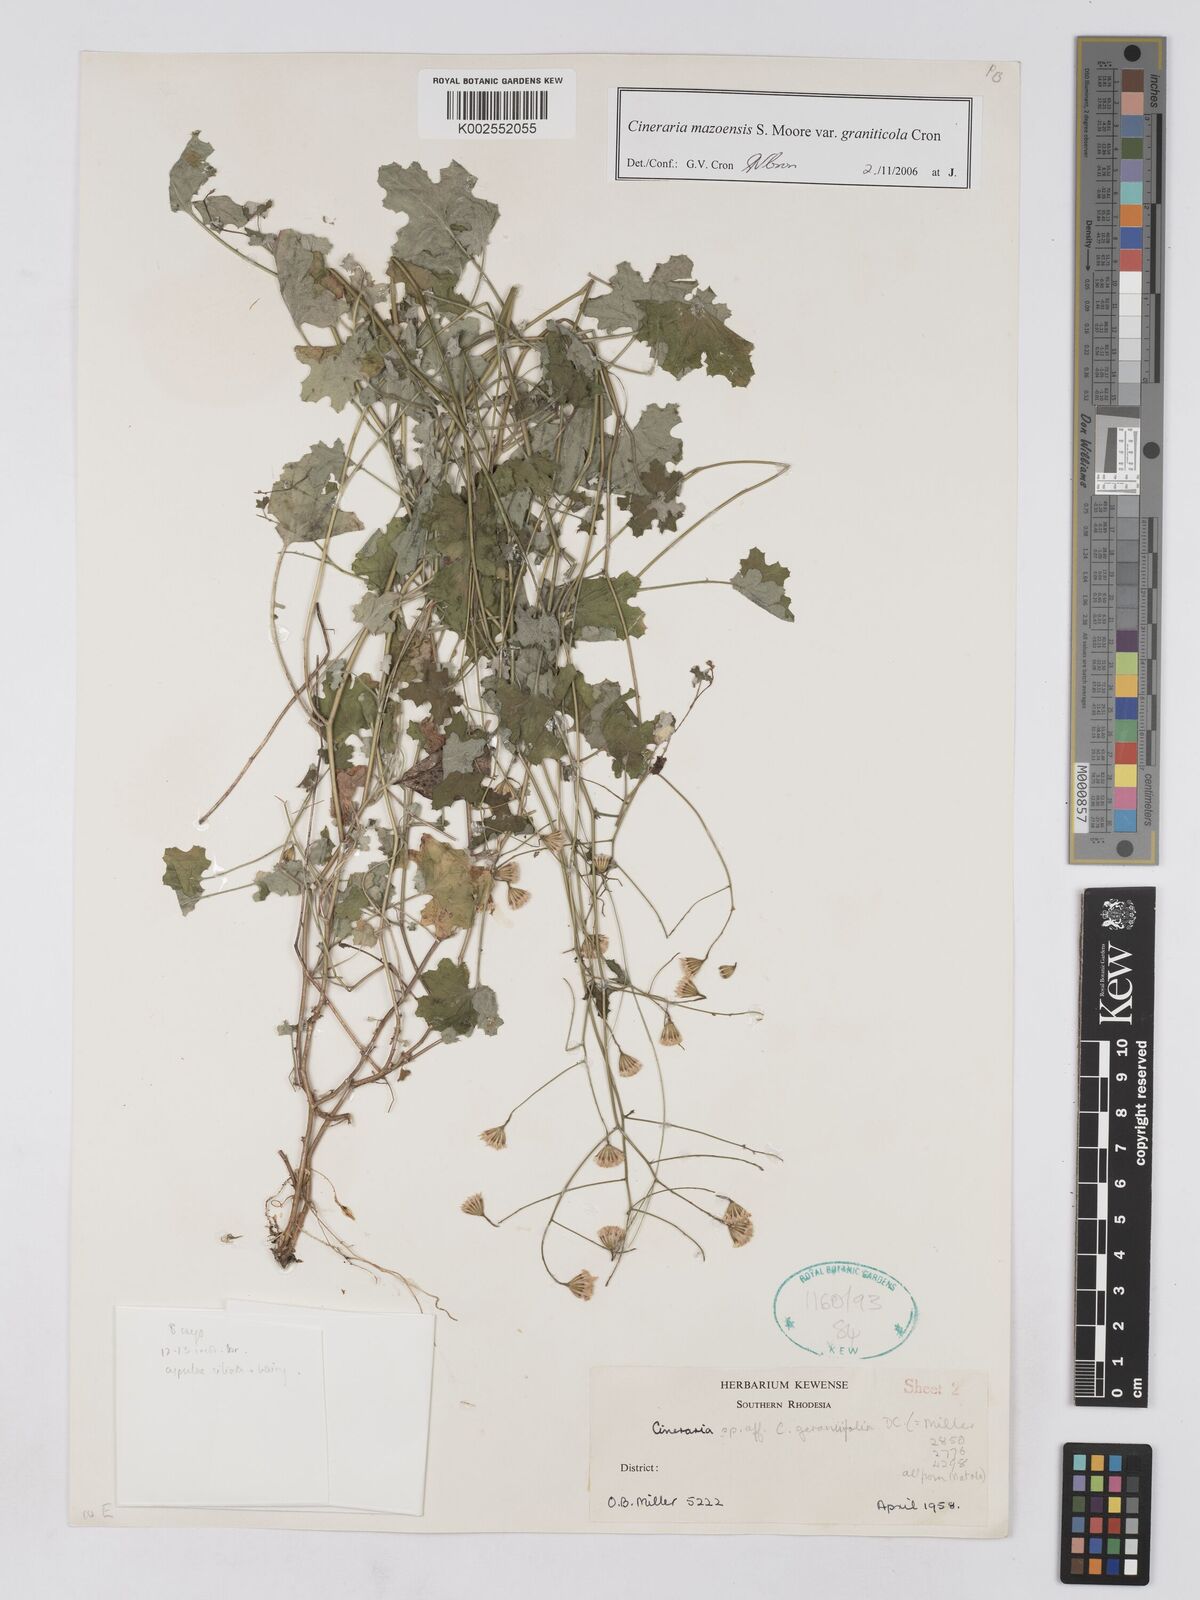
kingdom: Plantae
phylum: Tracheophyta
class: Magnoliopsida
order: Asterales
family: Asteraceae
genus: Cineraria
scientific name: Cineraria mazoensis
